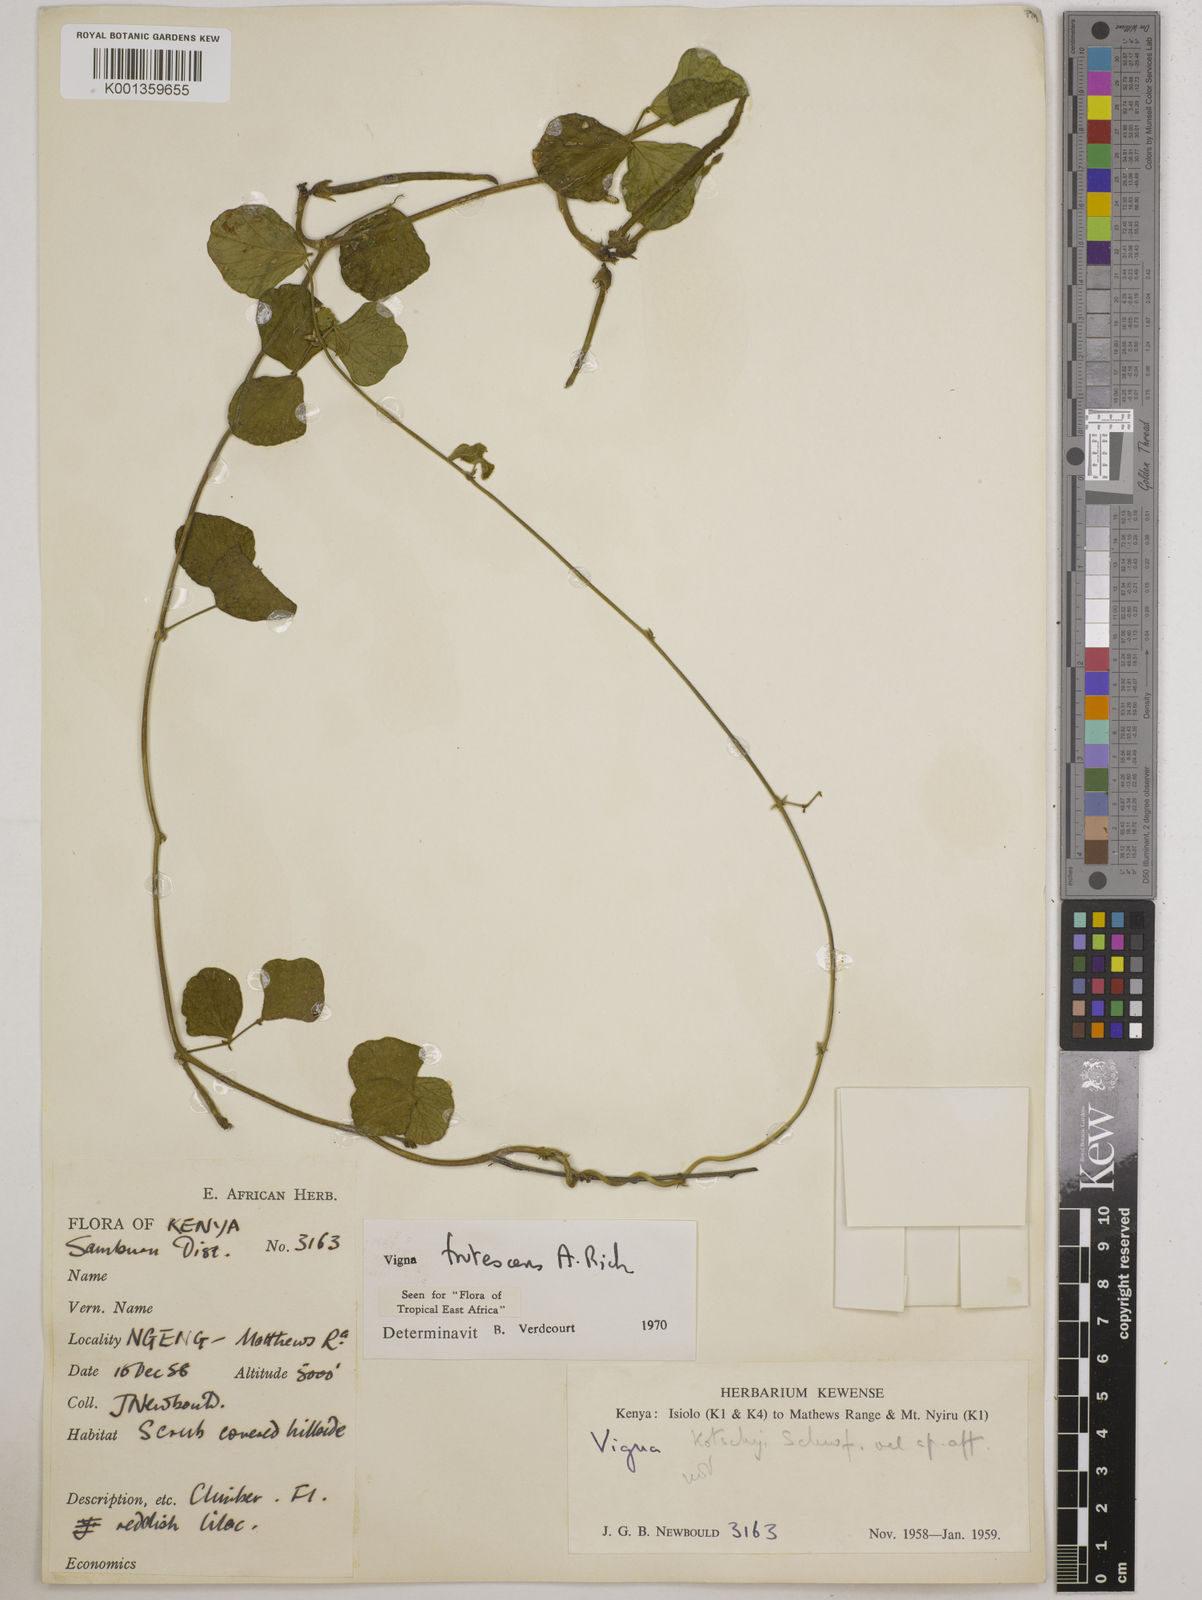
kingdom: Plantae
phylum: Tracheophyta
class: Magnoliopsida
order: Fabales
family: Fabaceae
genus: Vigna
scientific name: Vigna frutescens
